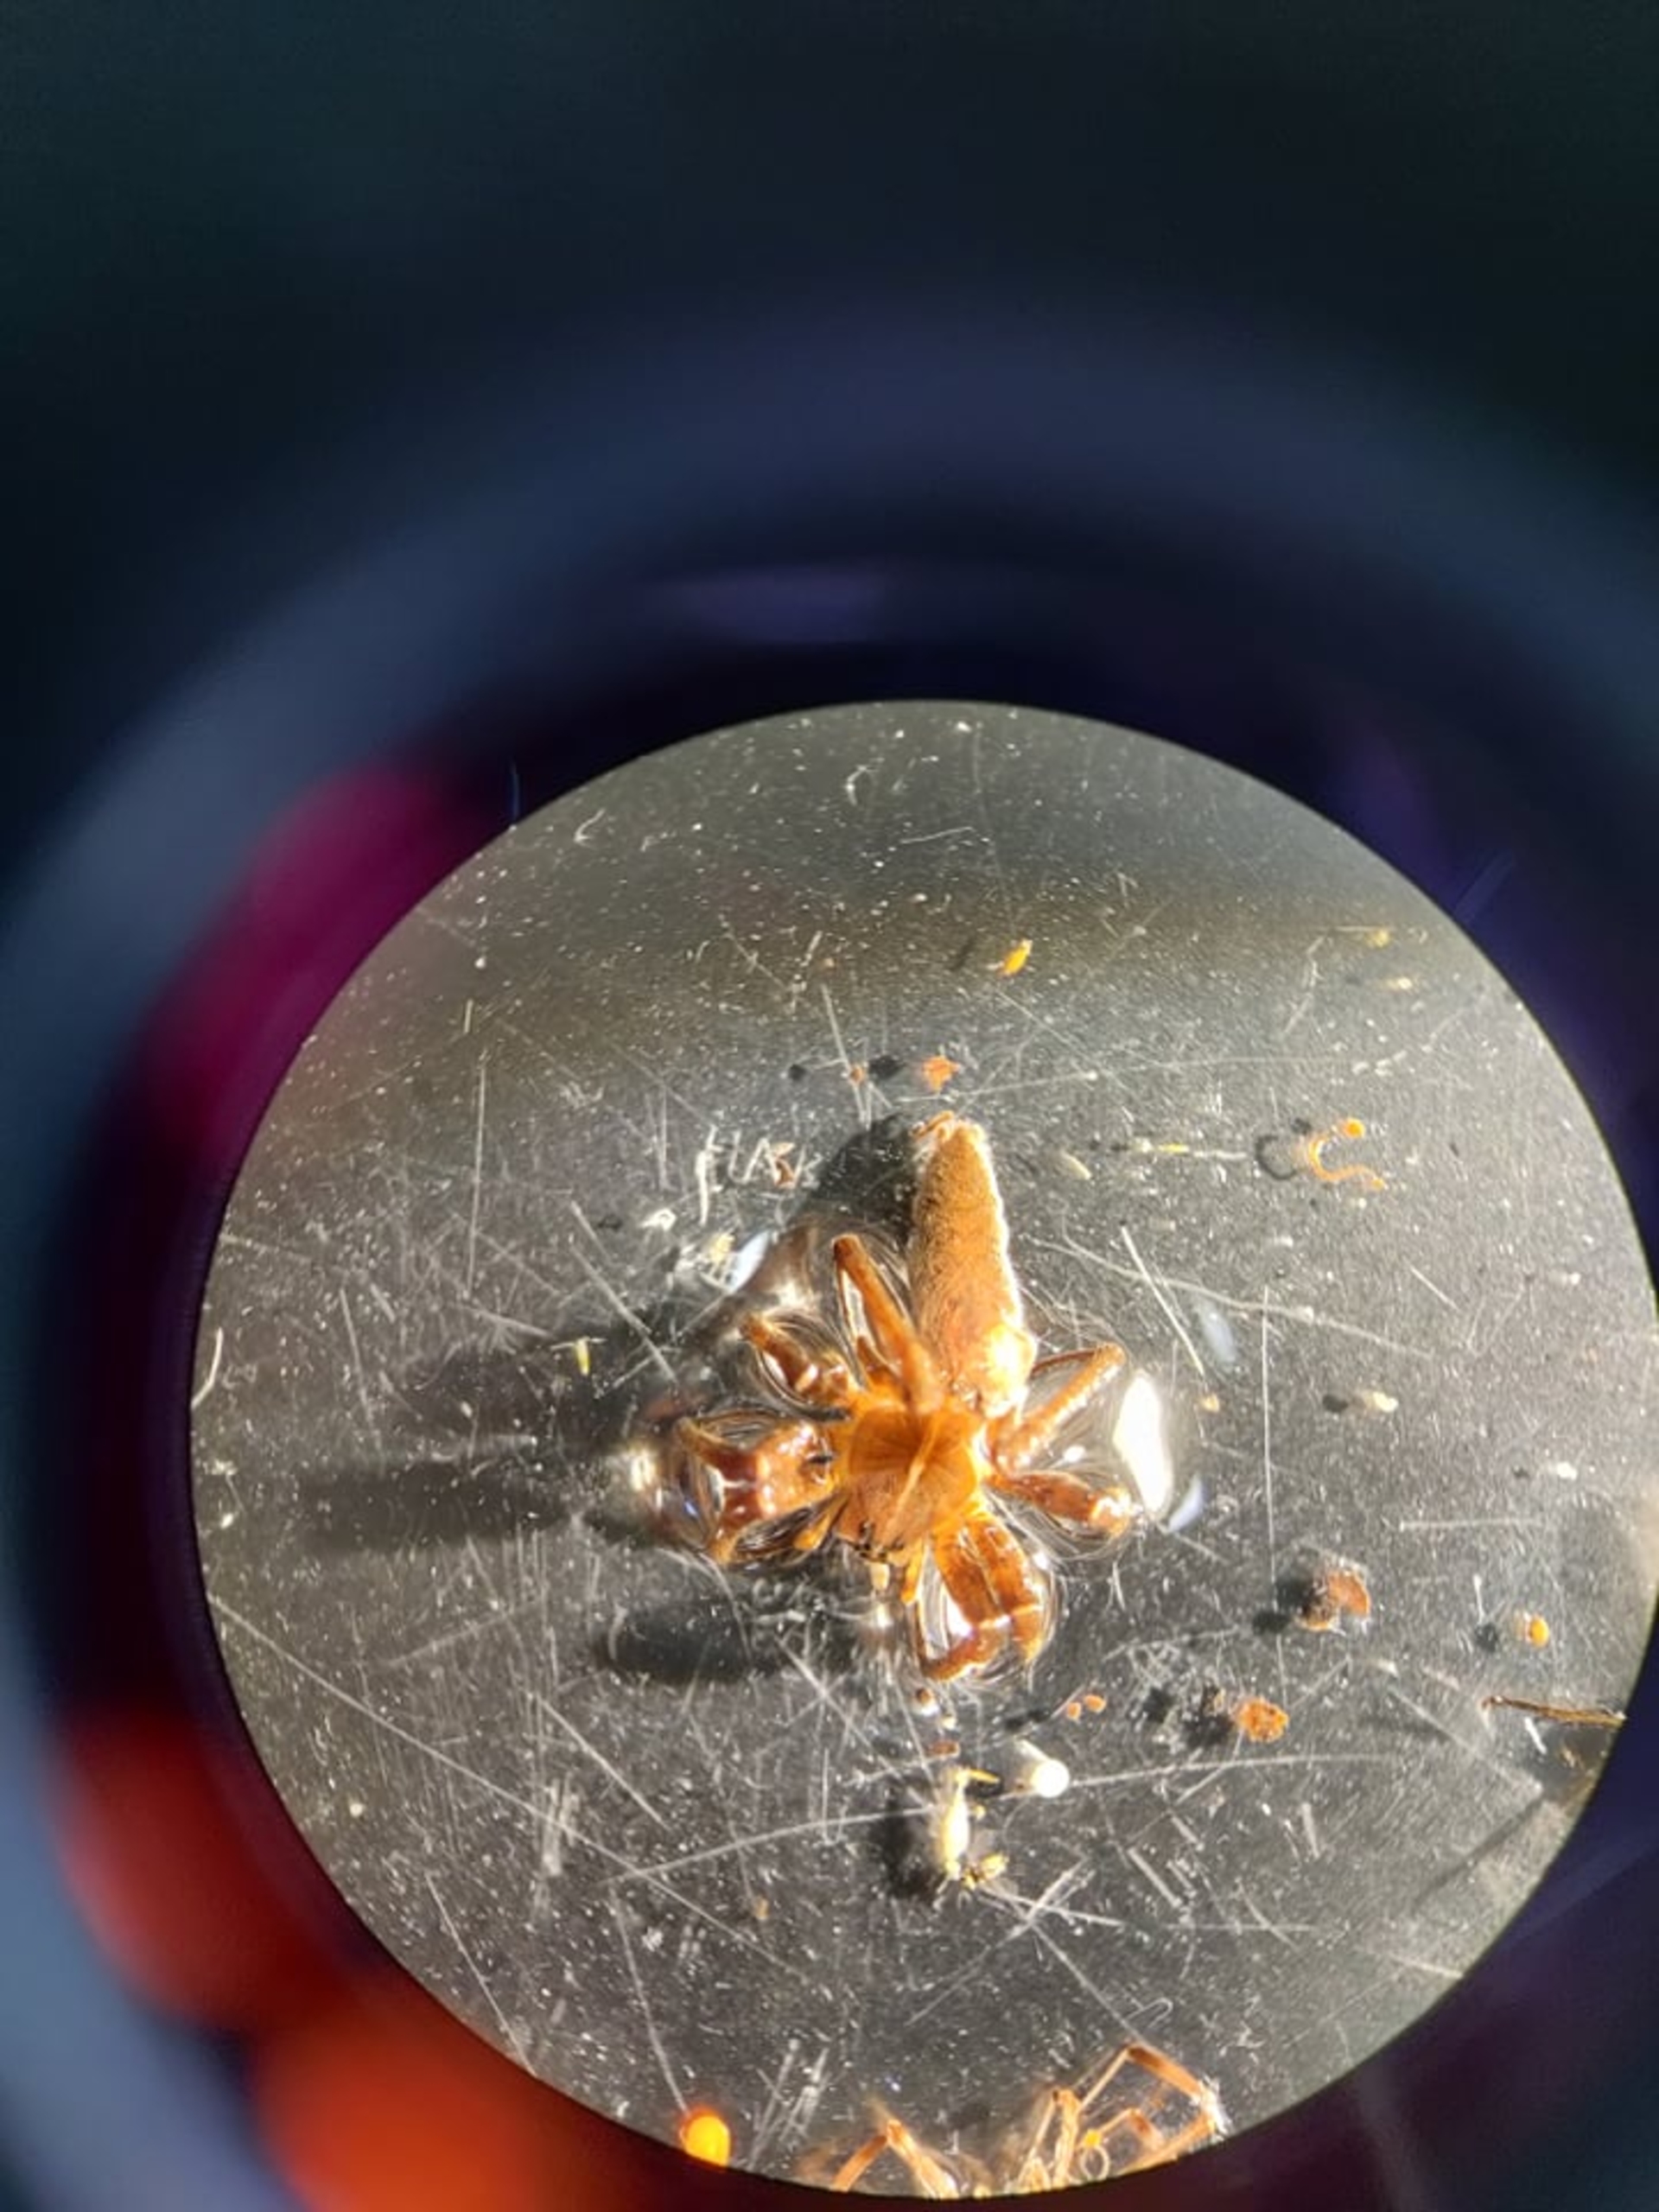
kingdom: Animalia
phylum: Arthropoda
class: Arachnida
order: Araneae
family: Pisauridae
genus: Pisaura
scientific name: Pisaura mirabilis
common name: Almindelig rovedderkop
